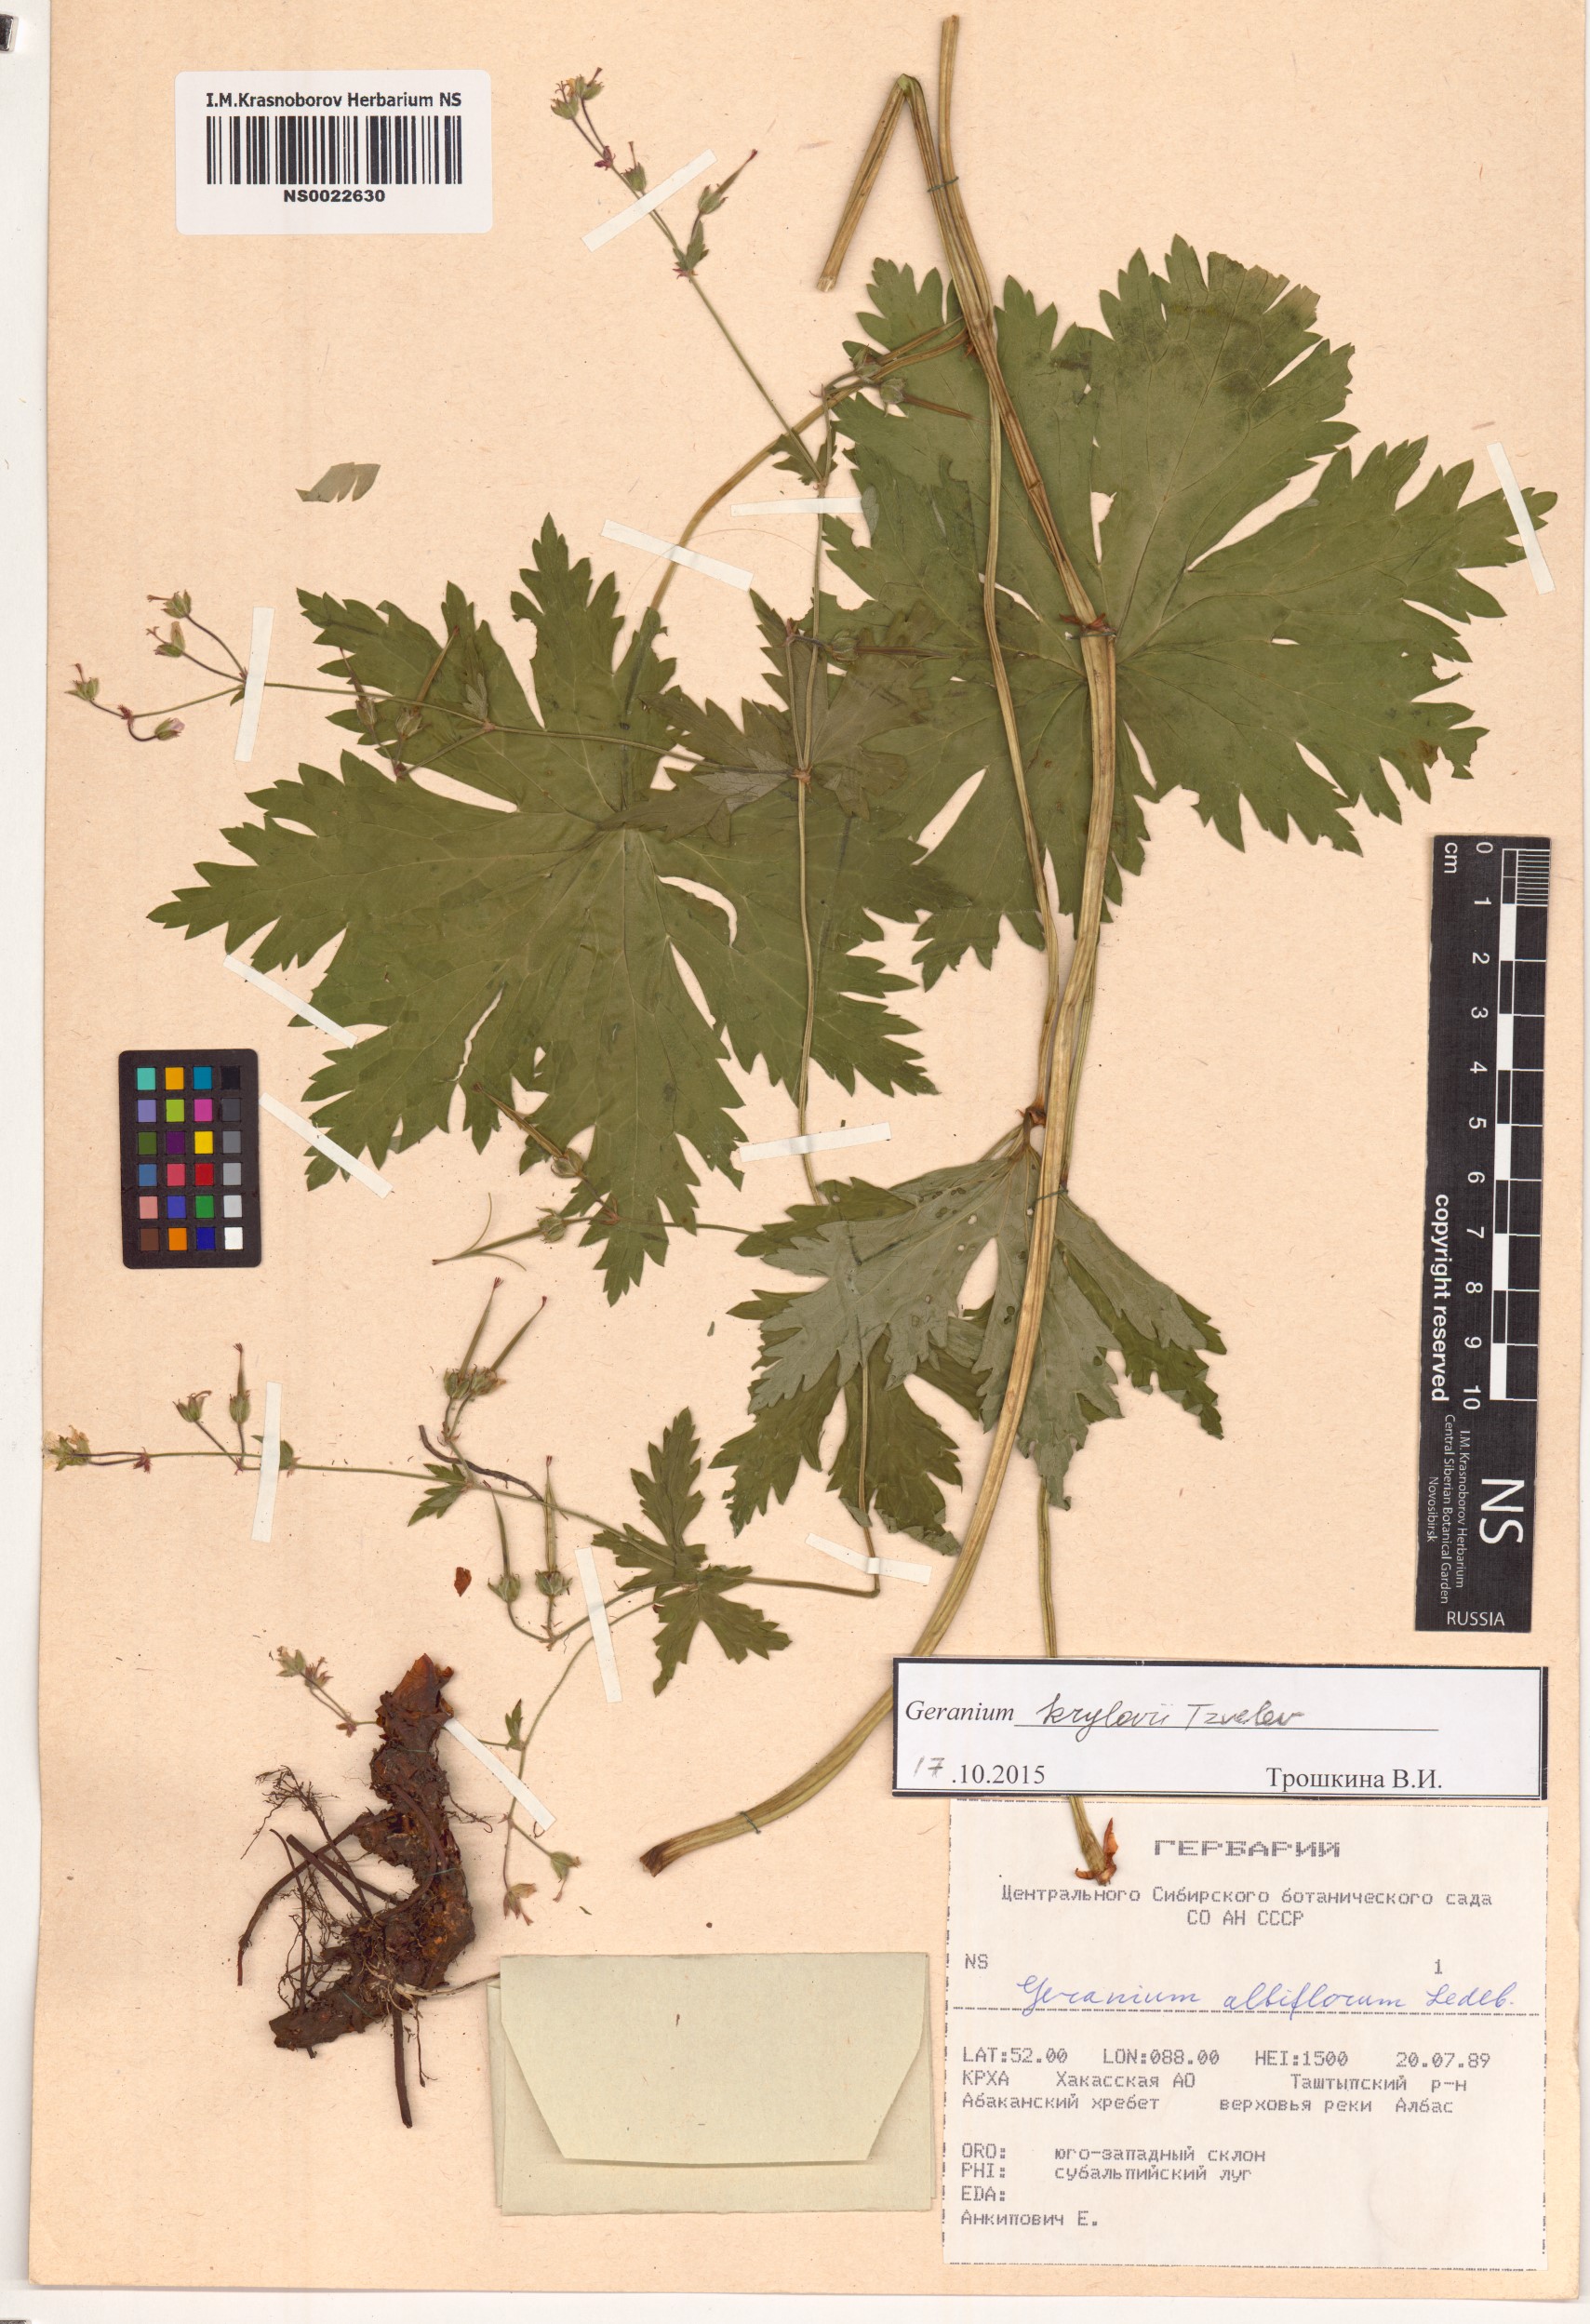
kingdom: Plantae
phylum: Tracheophyta
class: Magnoliopsida
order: Geraniales
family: Geraniaceae
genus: Geranium
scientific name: Geranium sylvaticum
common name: Wood crane's-bill
